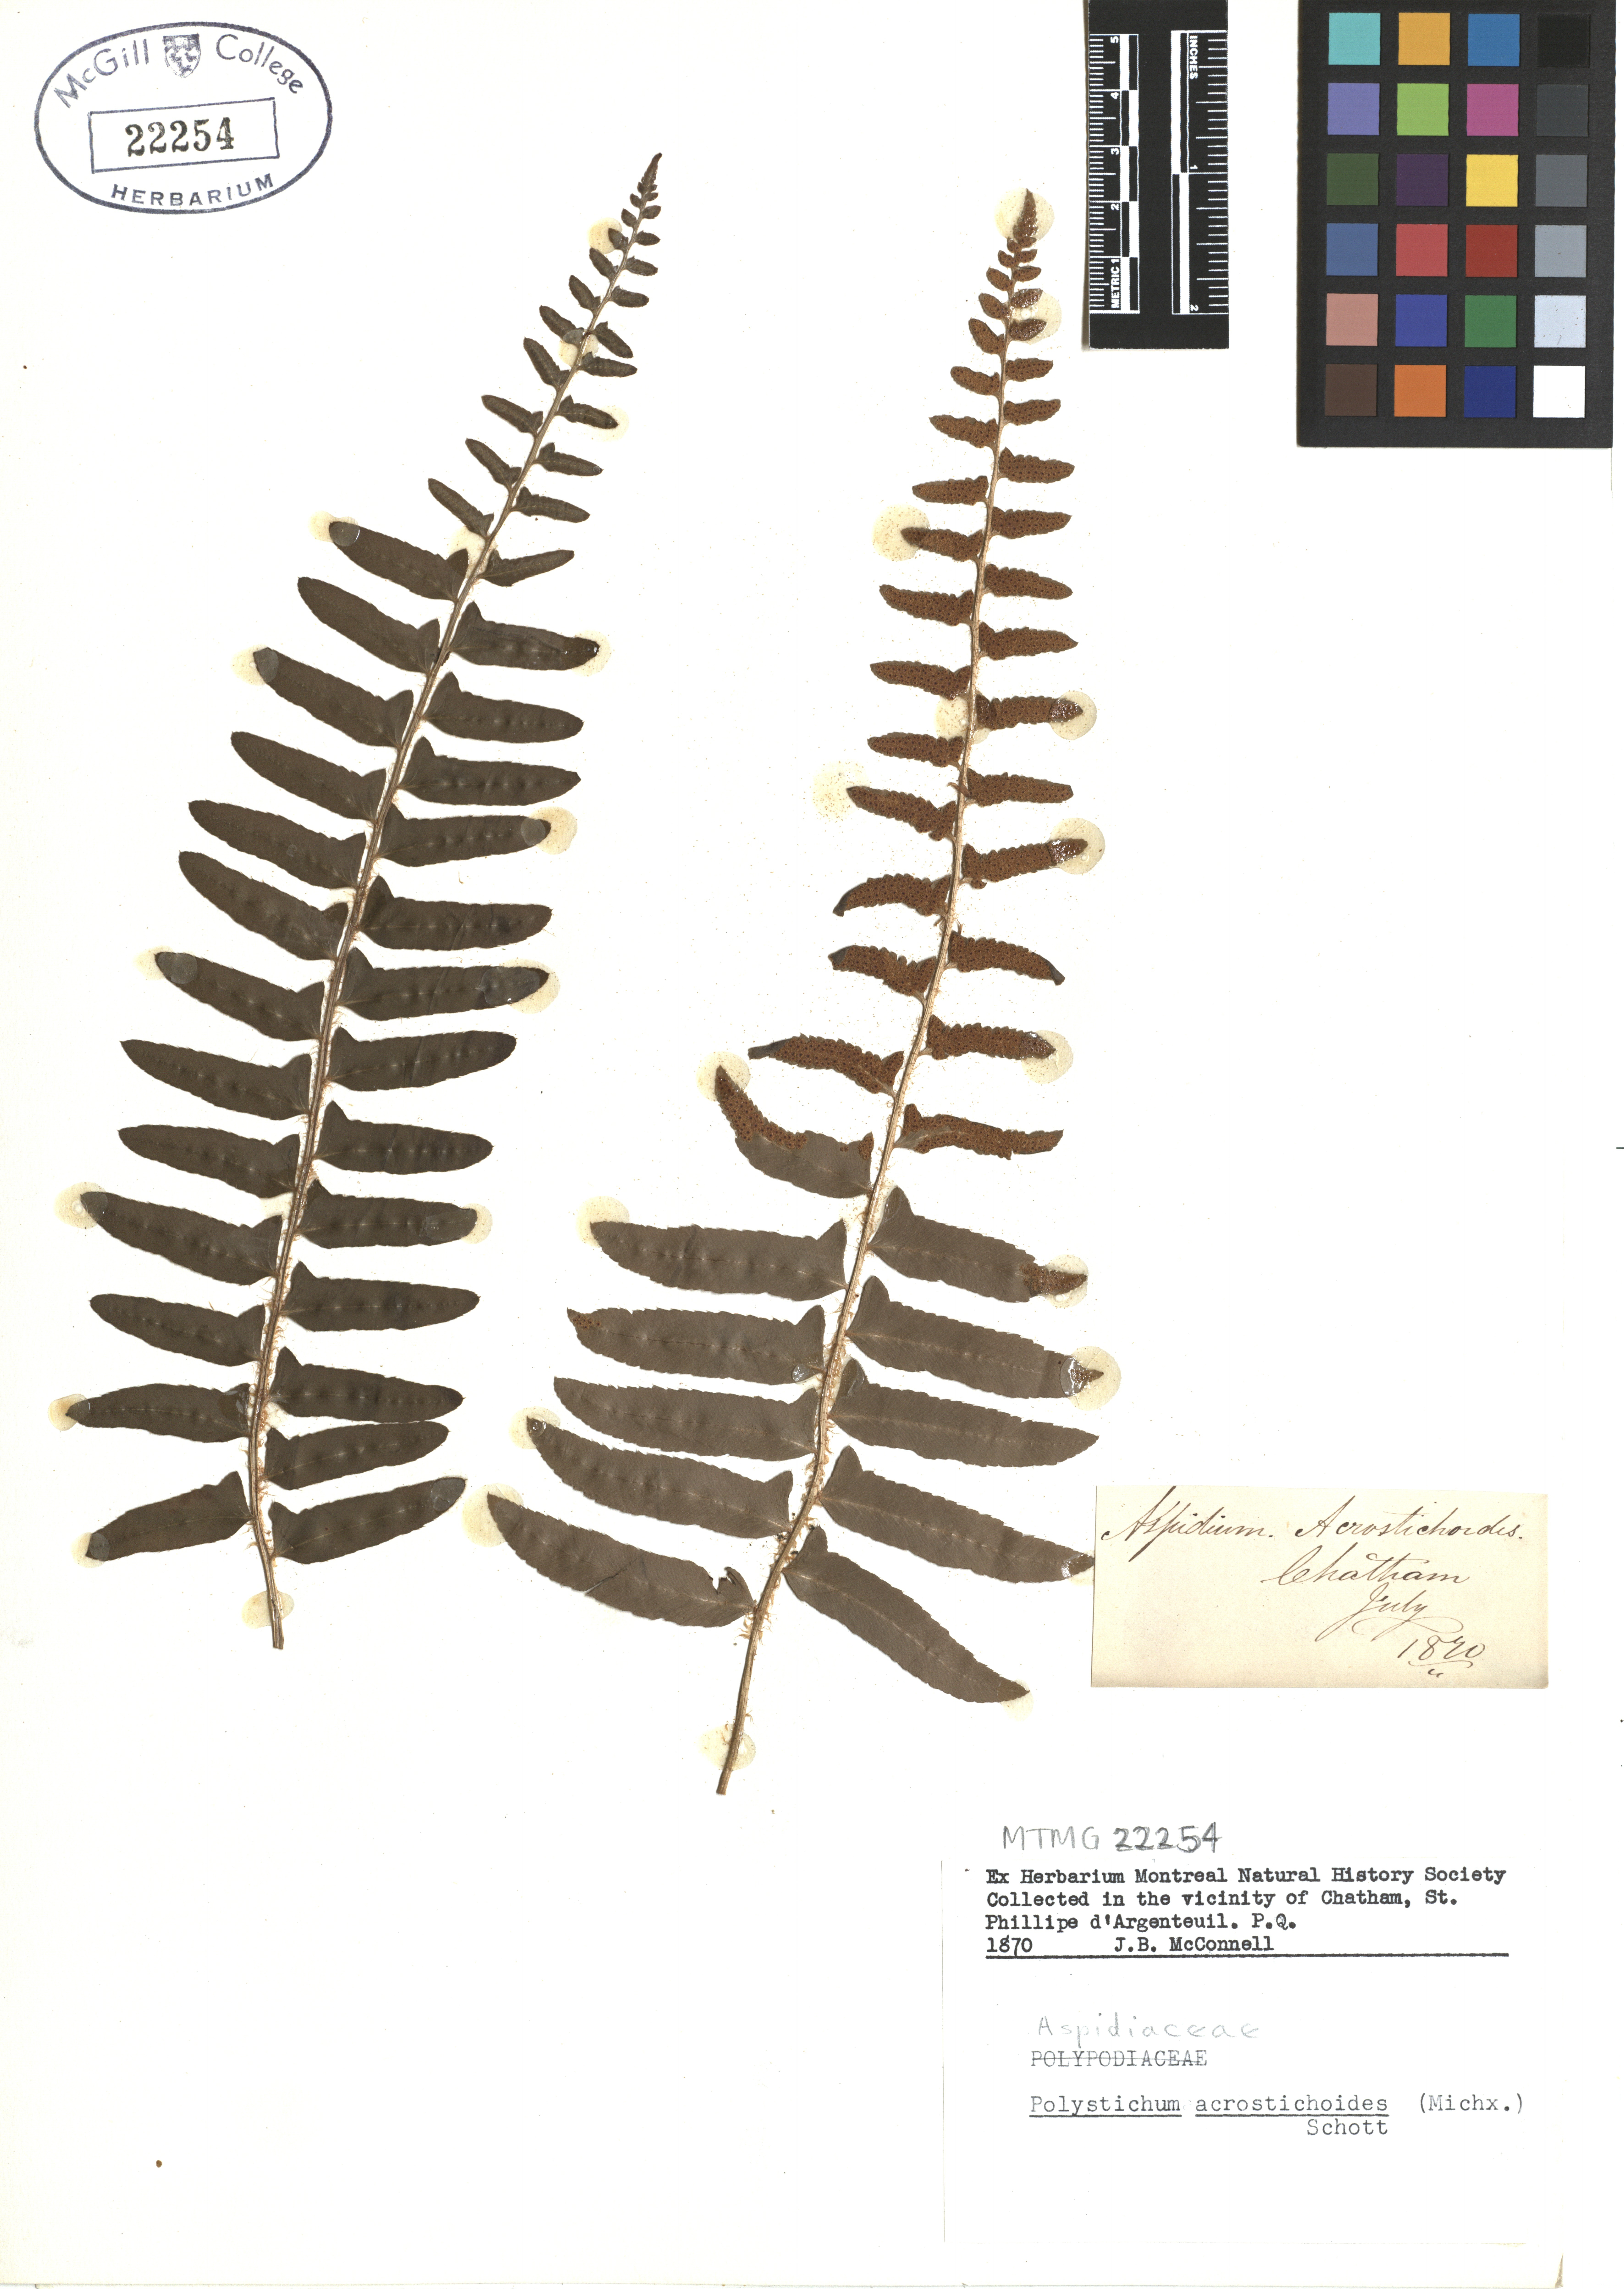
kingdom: Plantae
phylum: Tracheophyta
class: Polypodiopsida
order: Polypodiales
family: Dryopteridaceae
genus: Polystichum
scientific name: Polystichum acrostichoides
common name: Christmas fern
